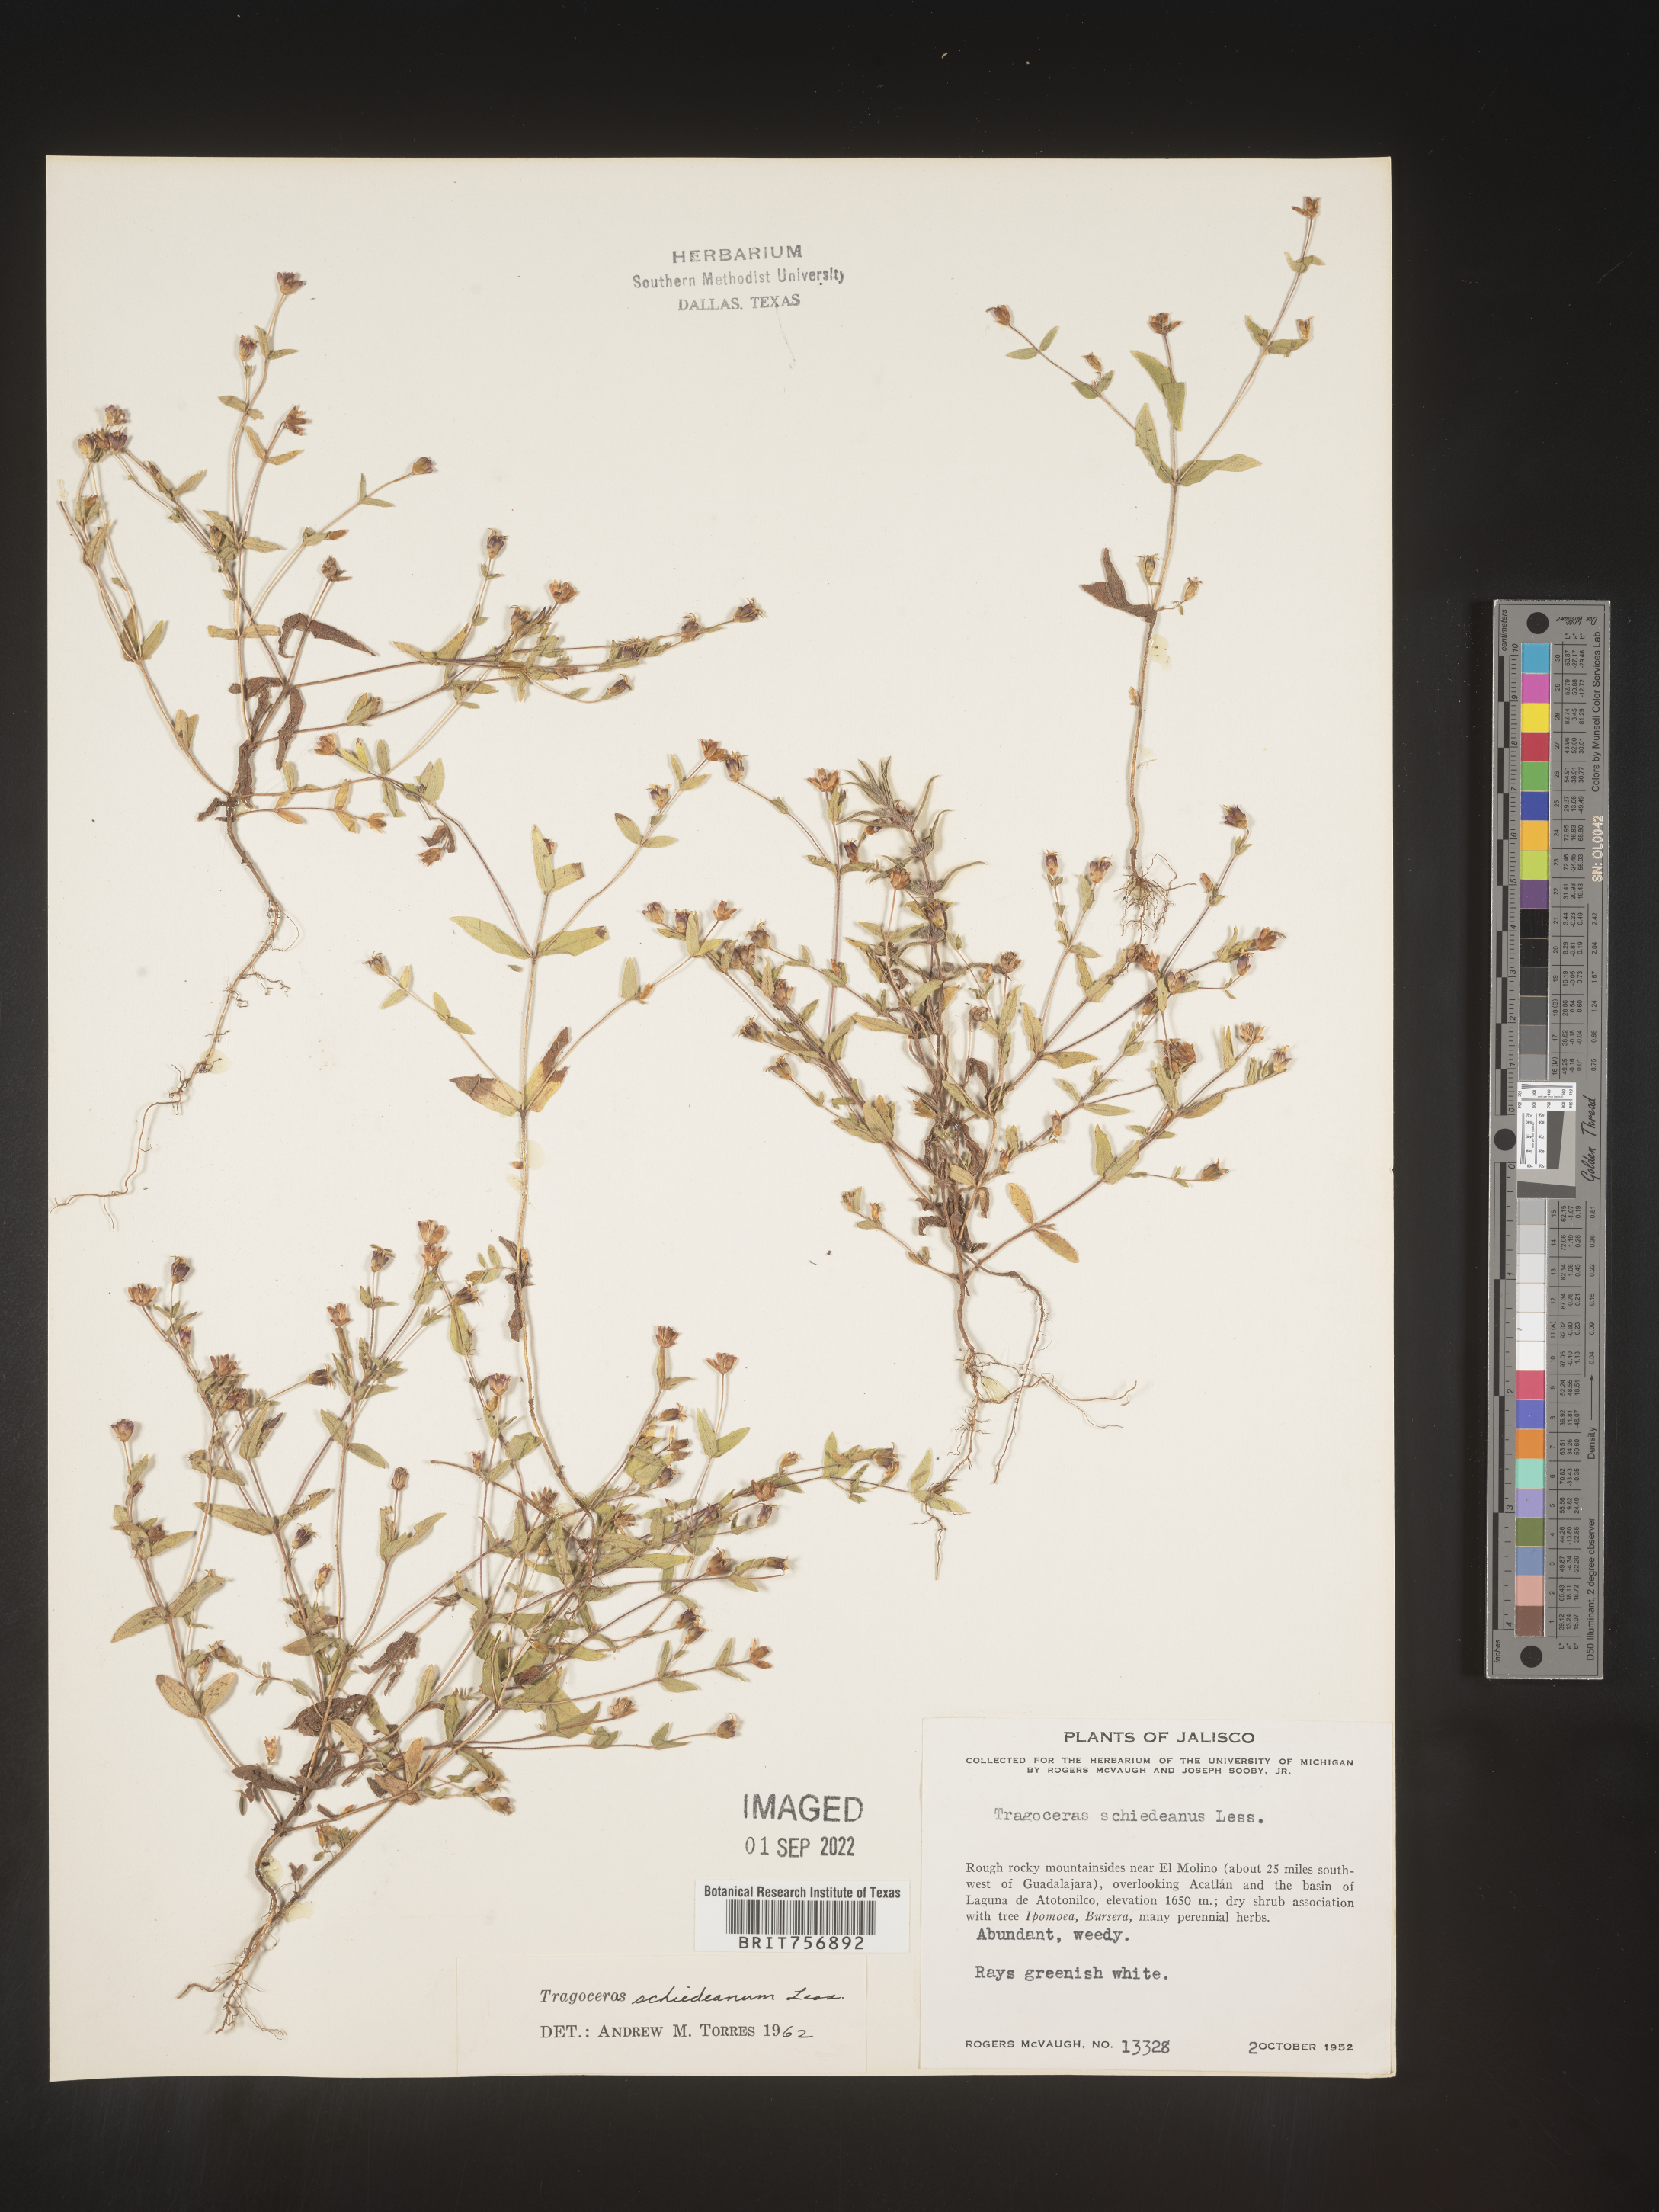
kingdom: Plantae
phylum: Tracheophyta
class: Magnoliopsida
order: Asterales
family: Asteraceae
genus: Zinnia
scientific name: Zinnia
